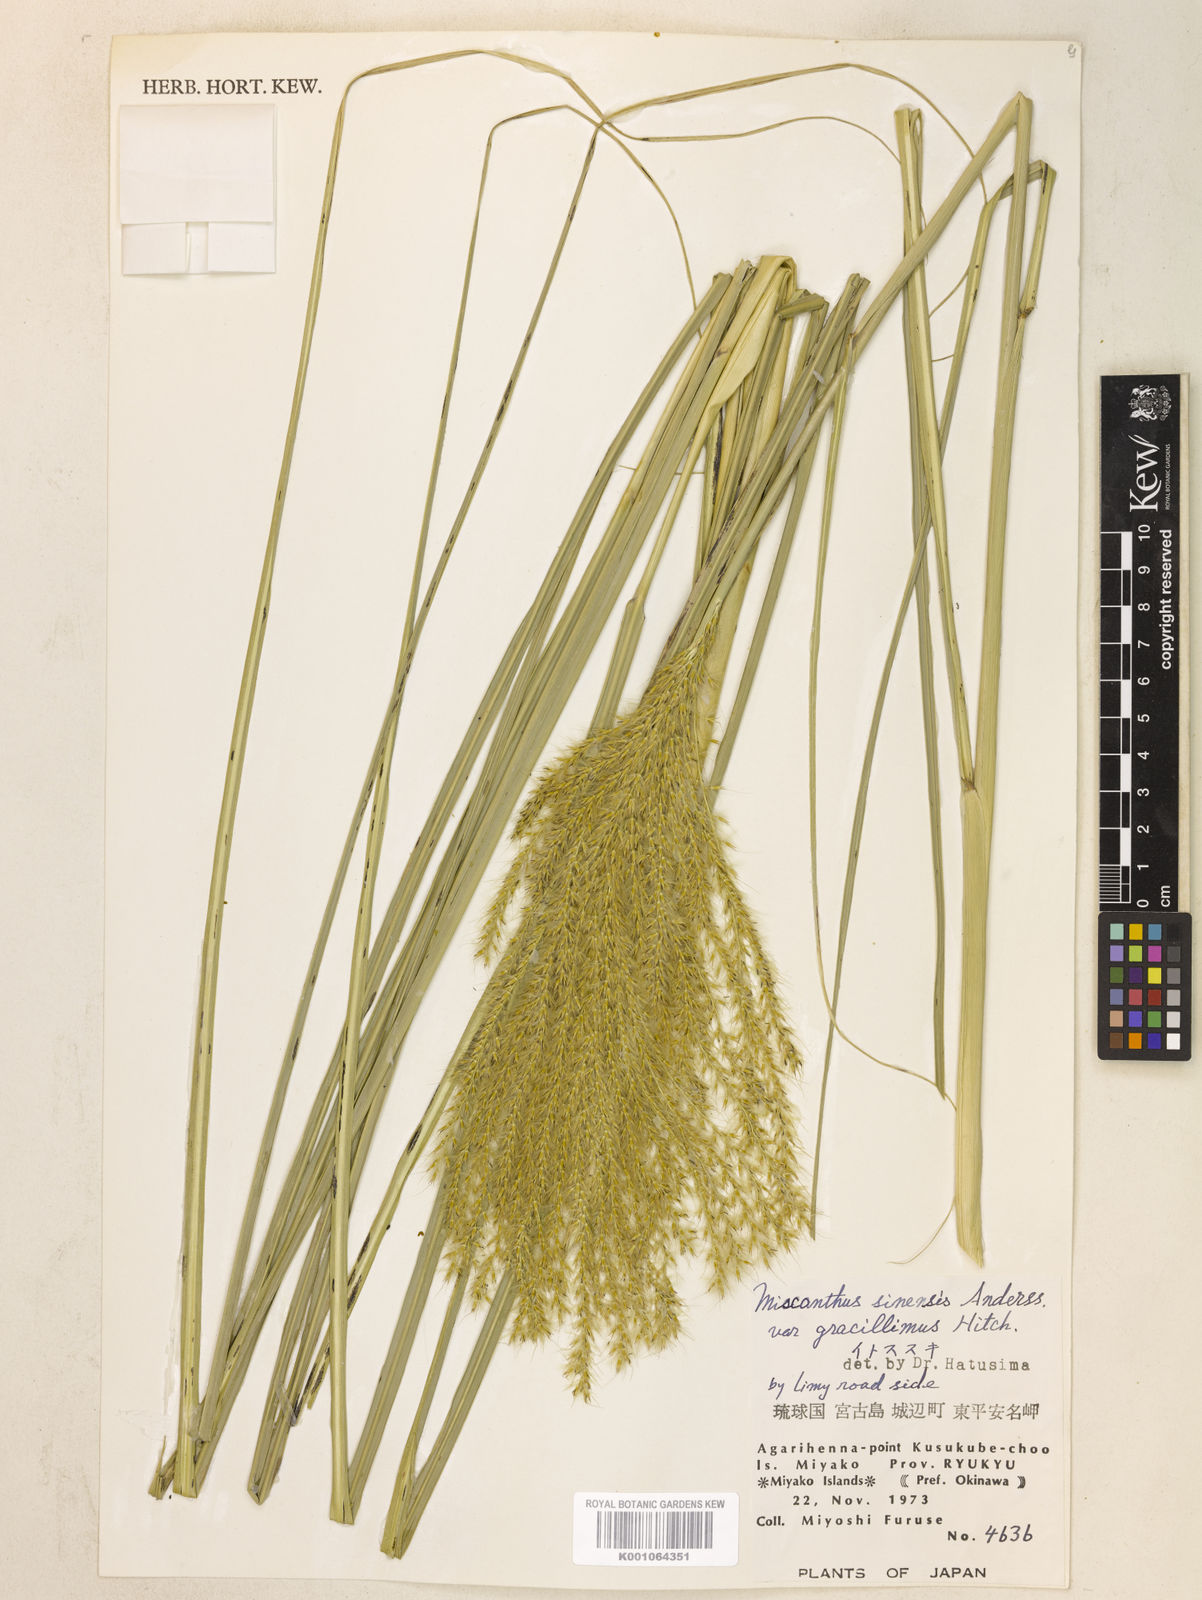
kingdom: Plantae
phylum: Tracheophyta
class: Liliopsida
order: Poales
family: Poaceae
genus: Miscanthus
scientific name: Miscanthus sinensis
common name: Chinese silvergrass
